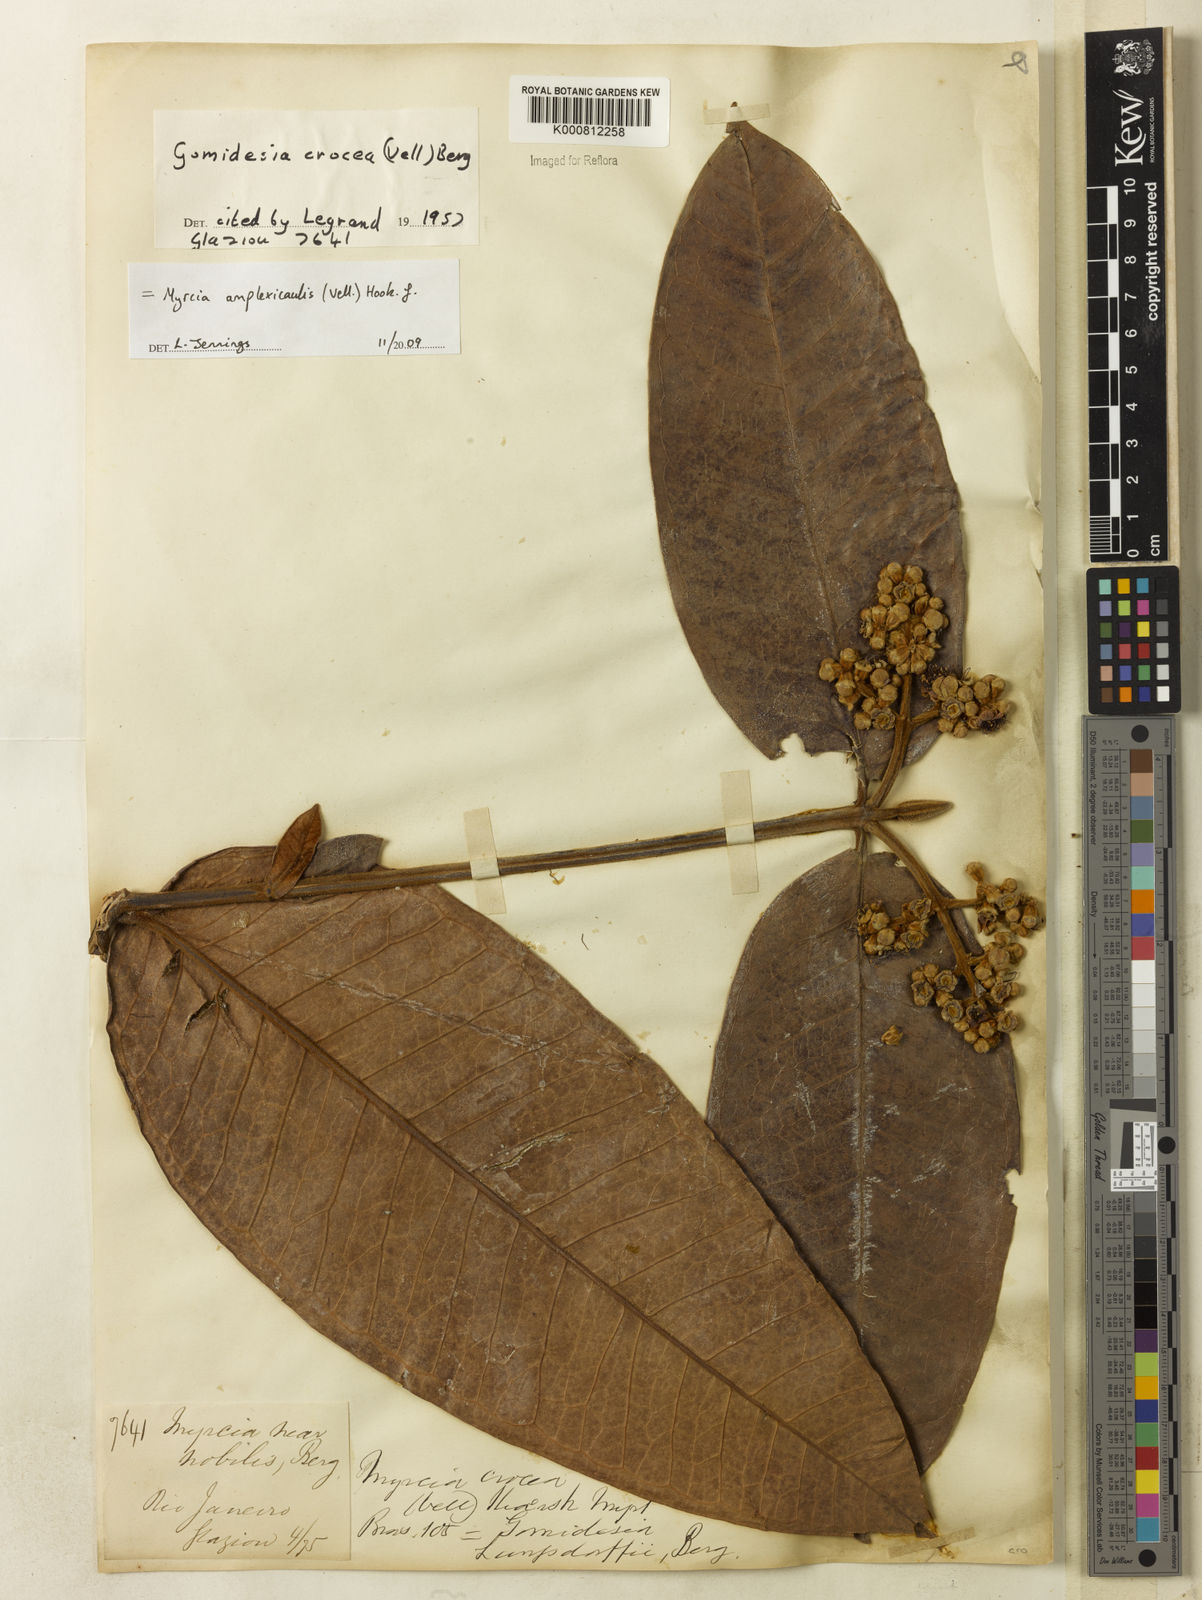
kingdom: Plantae
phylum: Tracheophyta
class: Magnoliopsida
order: Myrtales
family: Myrtaceae
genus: Myrcia
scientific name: Myrcia amplexicaulis
